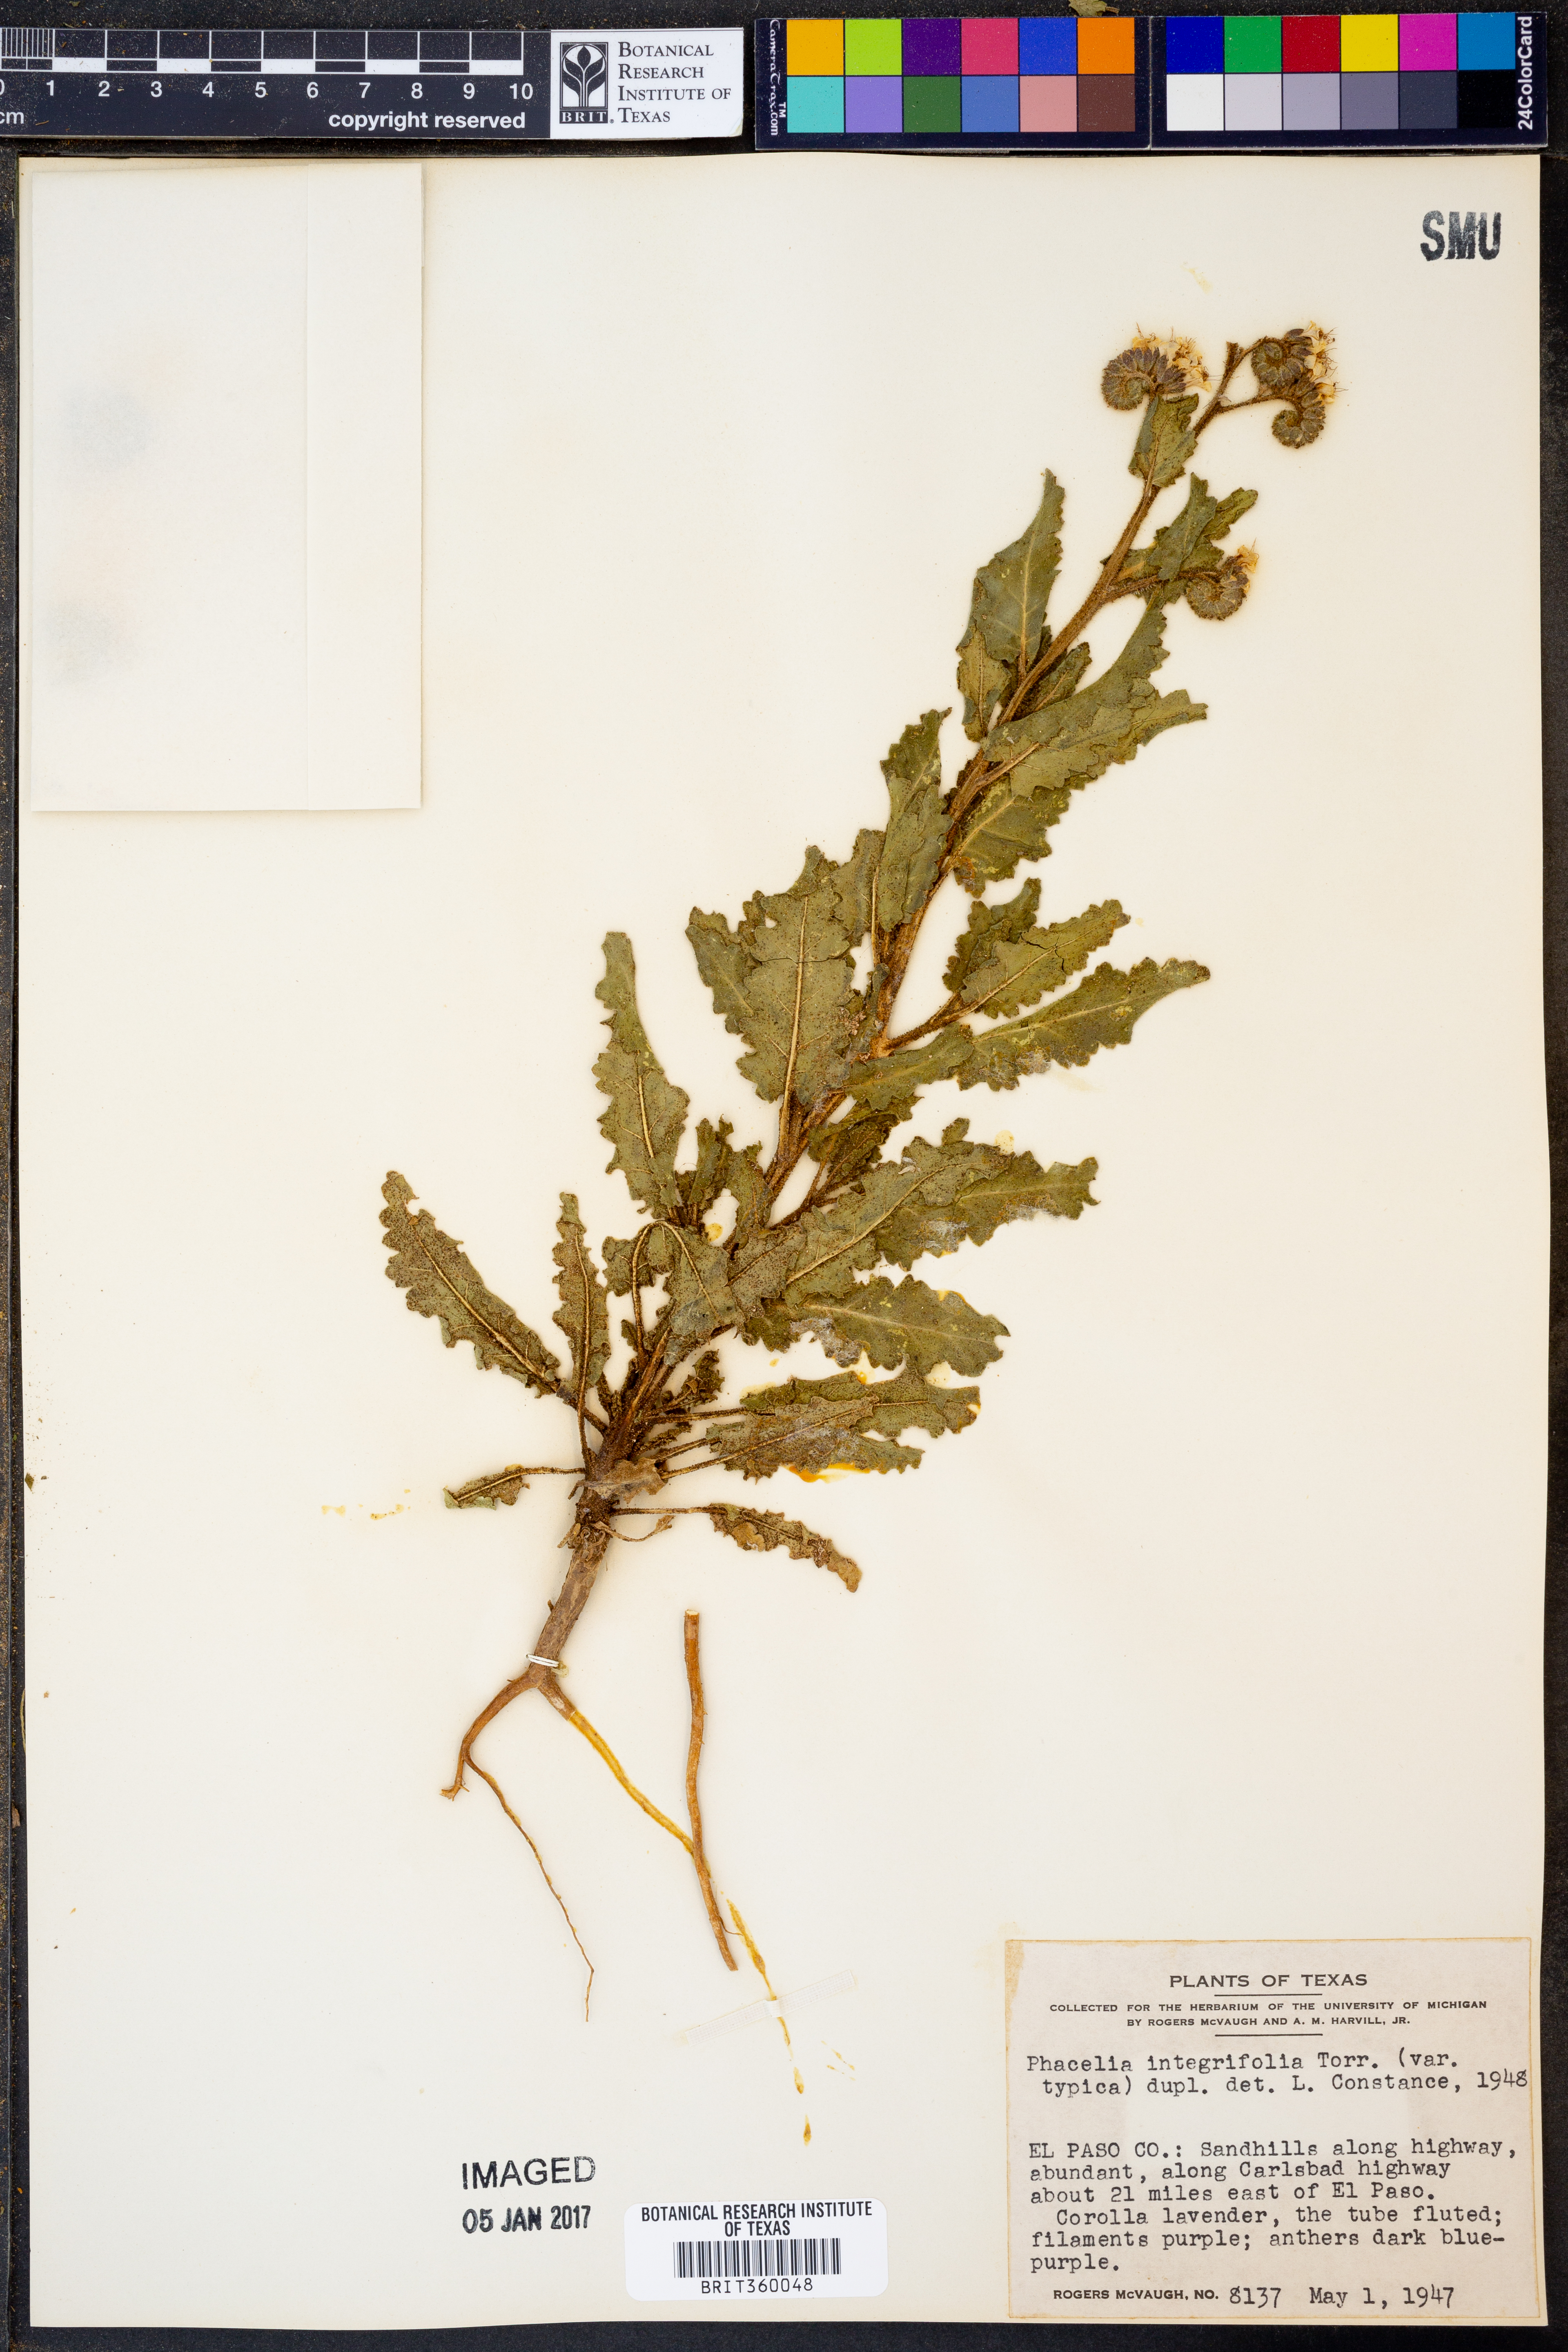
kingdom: Plantae
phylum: Tracheophyta
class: Magnoliopsida
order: Boraginales
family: Hydrophyllaceae
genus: Phacelia
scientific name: Phacelia integrifolia
